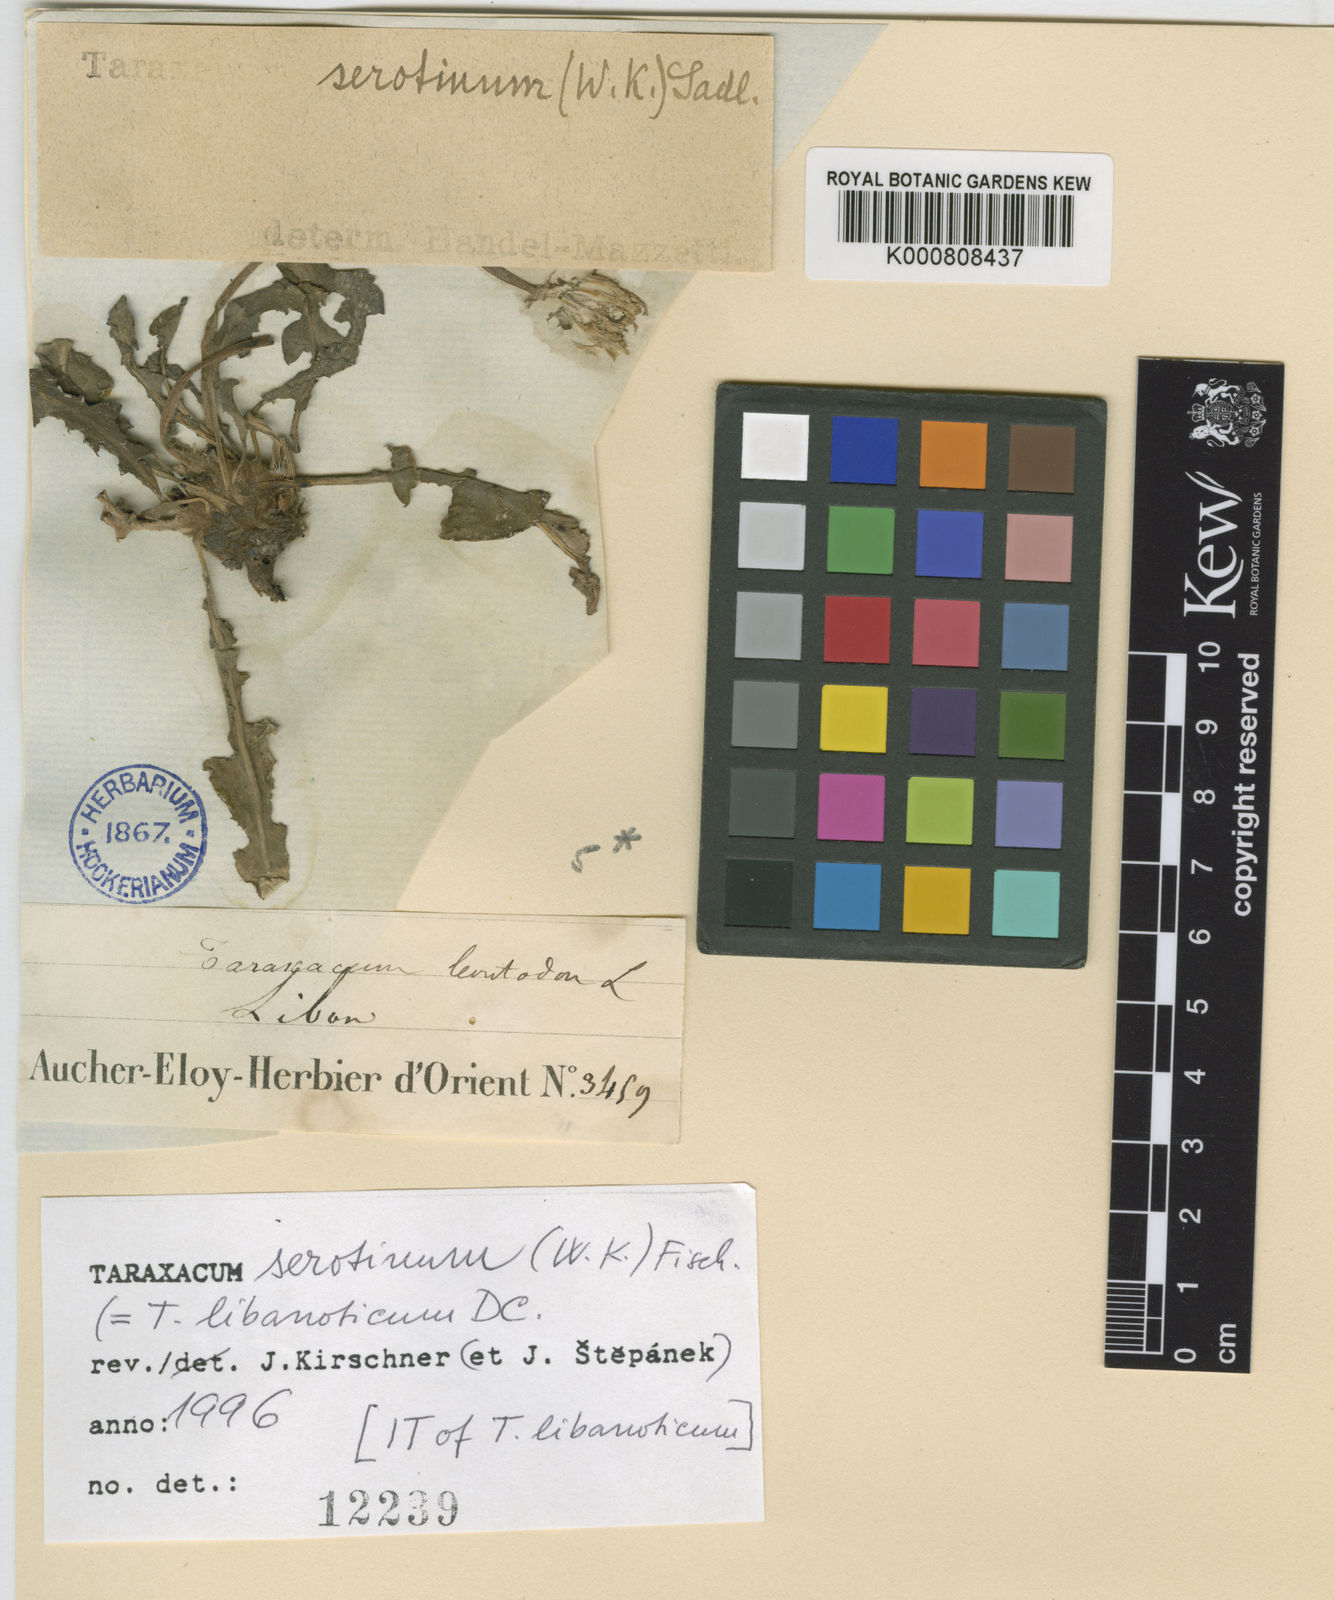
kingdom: Plantae
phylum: Tracheophyta
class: Magnoliopsida
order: Asterales
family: Asteraceae
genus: Taraxacum
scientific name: Taraxacum
